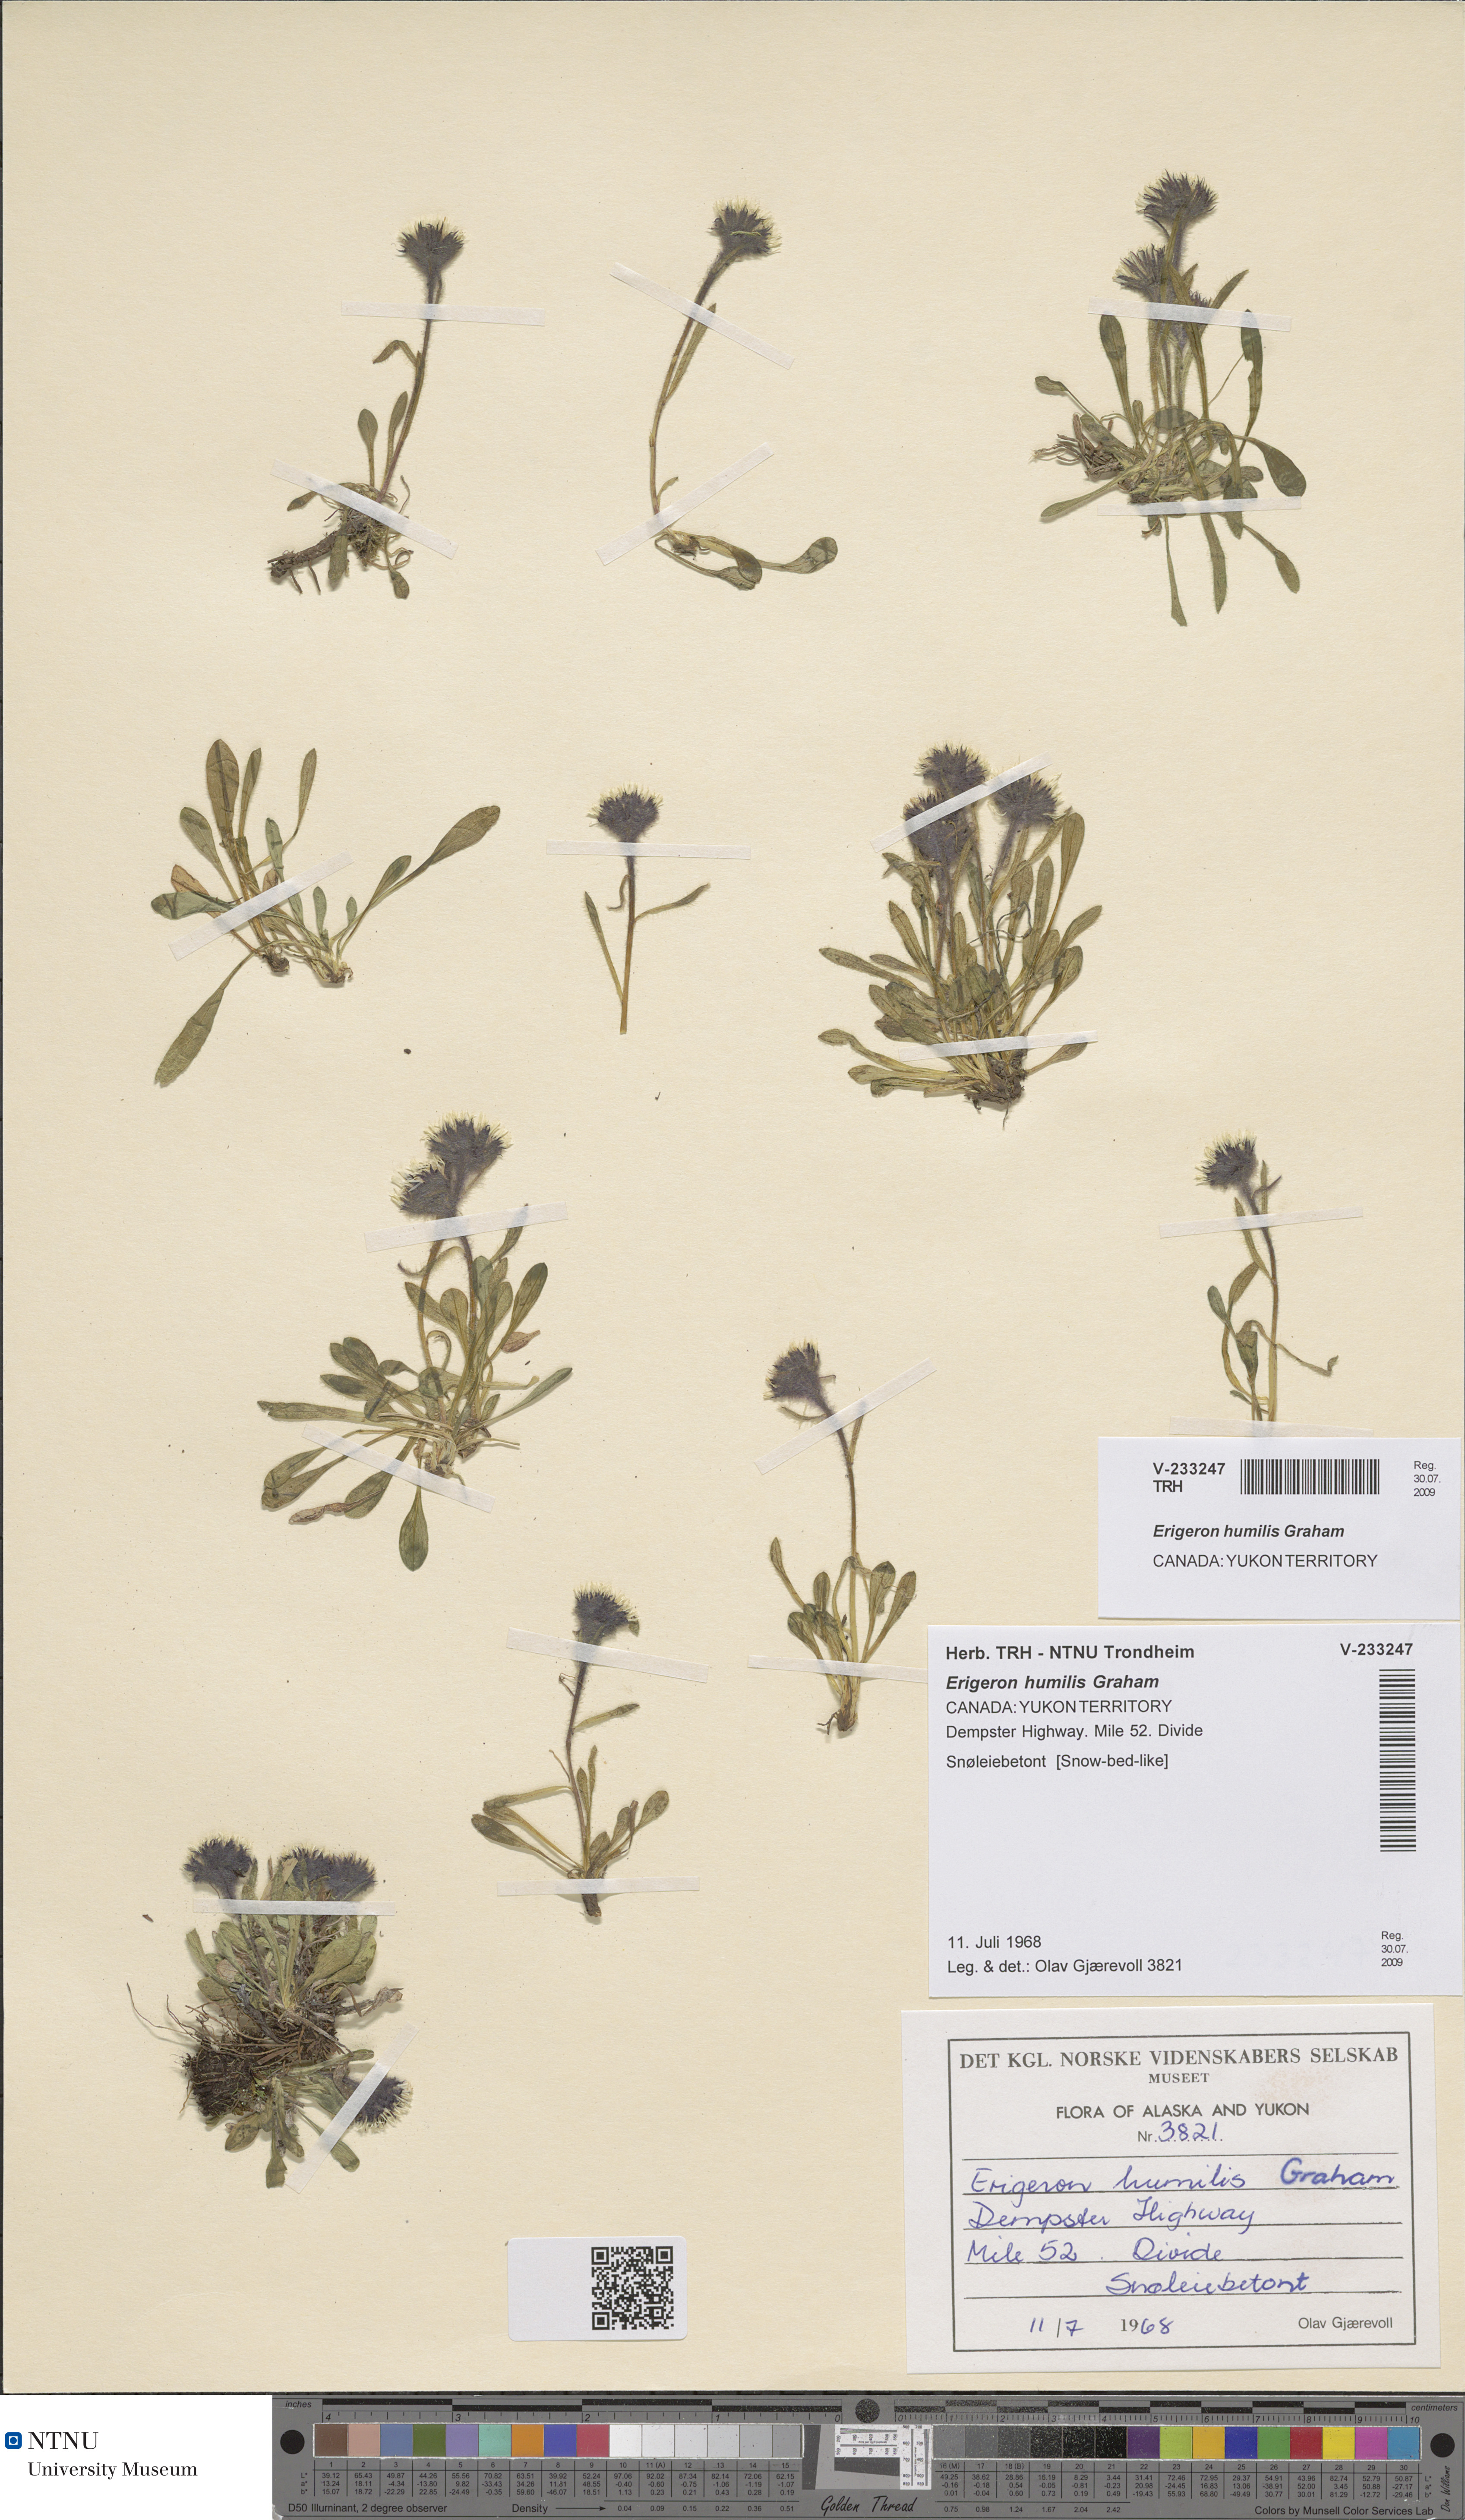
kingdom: Plantae
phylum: Tracheophyta
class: Magnoliopsida
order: Asterales
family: Asteraceae
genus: Erigeron
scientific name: Erigeron humilis
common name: Arctic-alpine fleabane
